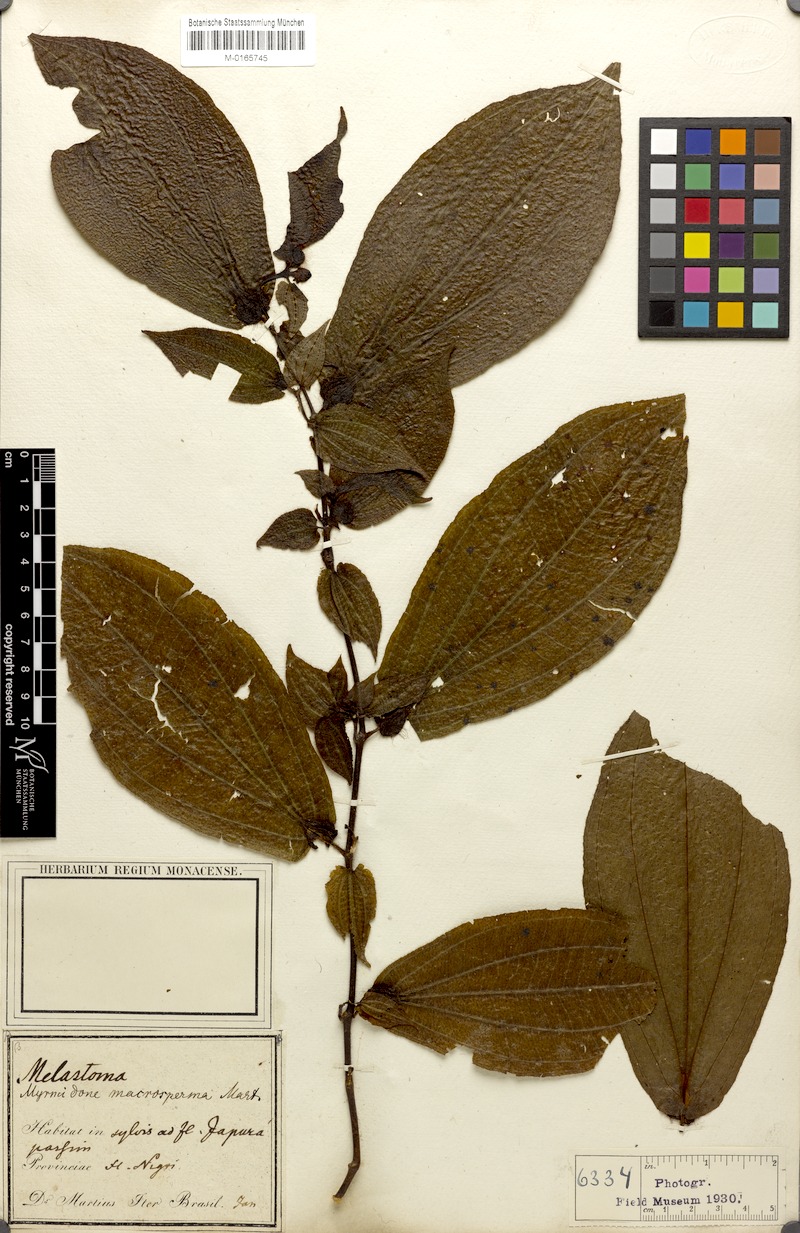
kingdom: Plantae
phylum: Tracheophyta
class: Magnoliopsida
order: Myrtales
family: Melastomataceae
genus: Miconia
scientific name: Miconia macrosperma
